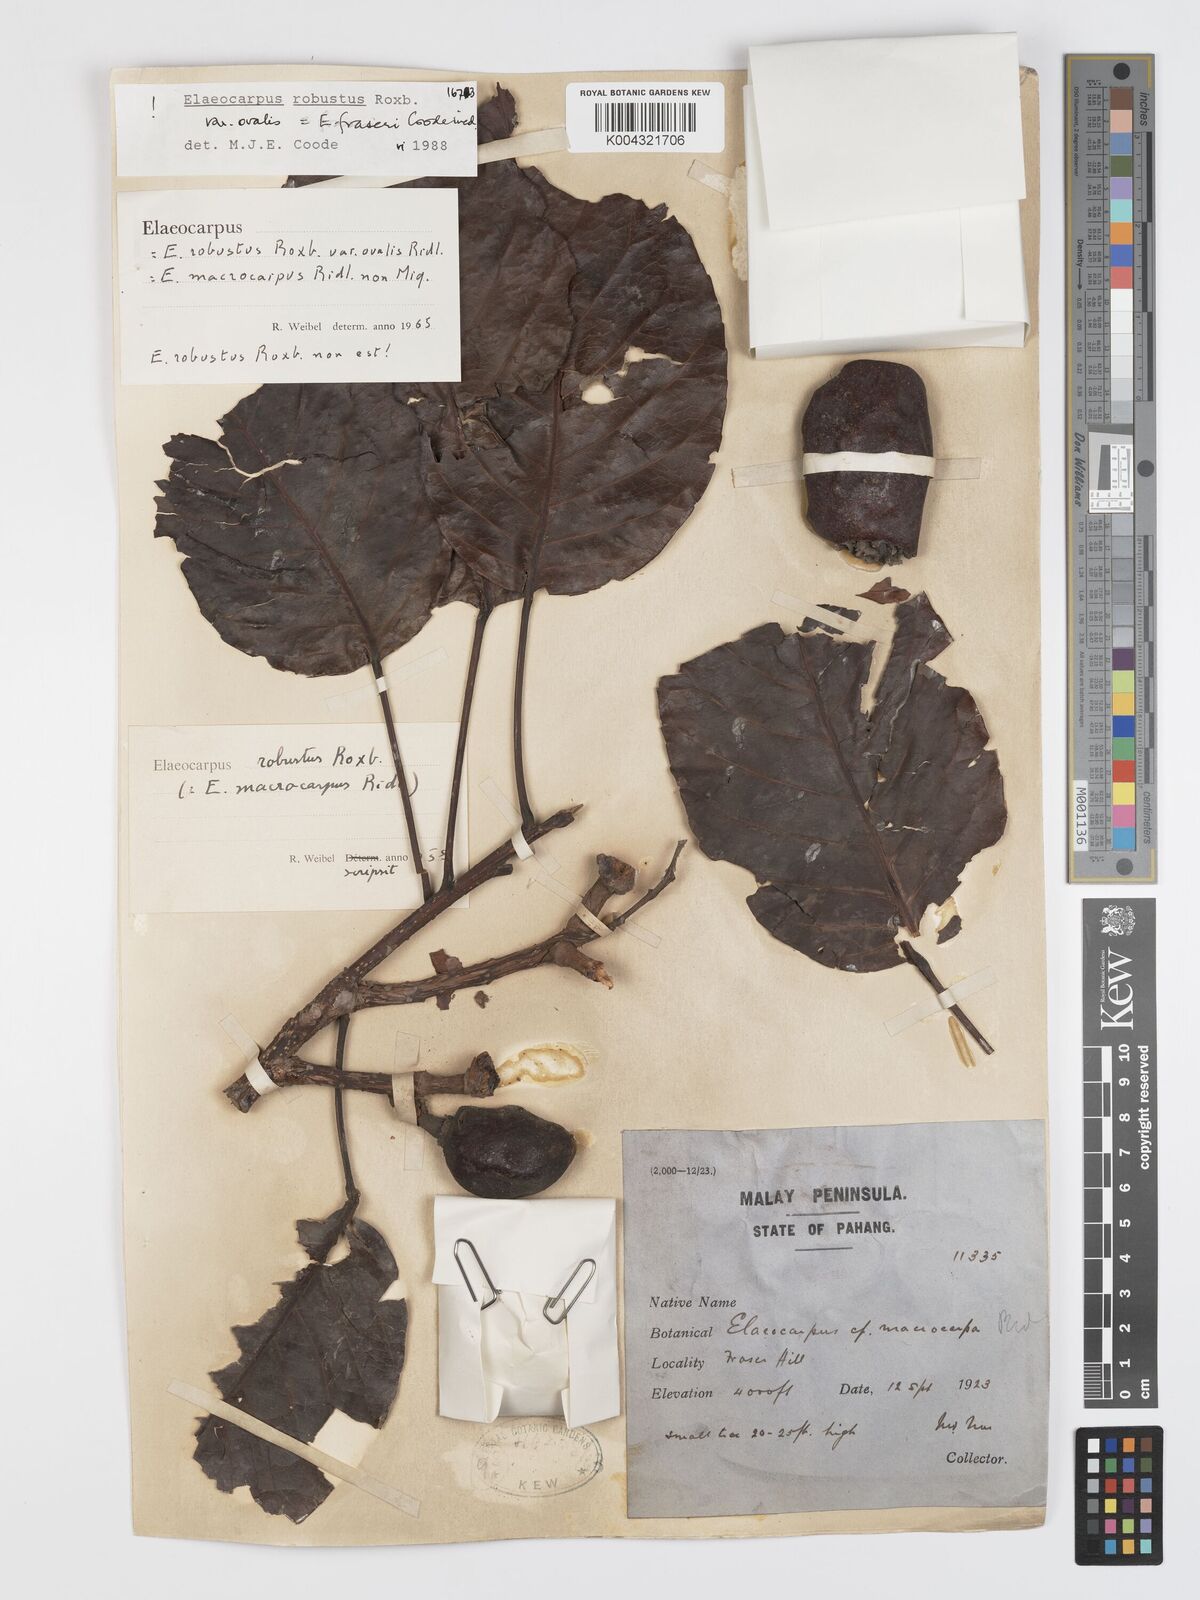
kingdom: Plantae
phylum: Tracheophyta
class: Magnoliopsida
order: Oxalidales
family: Elaeocarpaceae
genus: Elaeocarpus
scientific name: Elaeocarpus robustus
